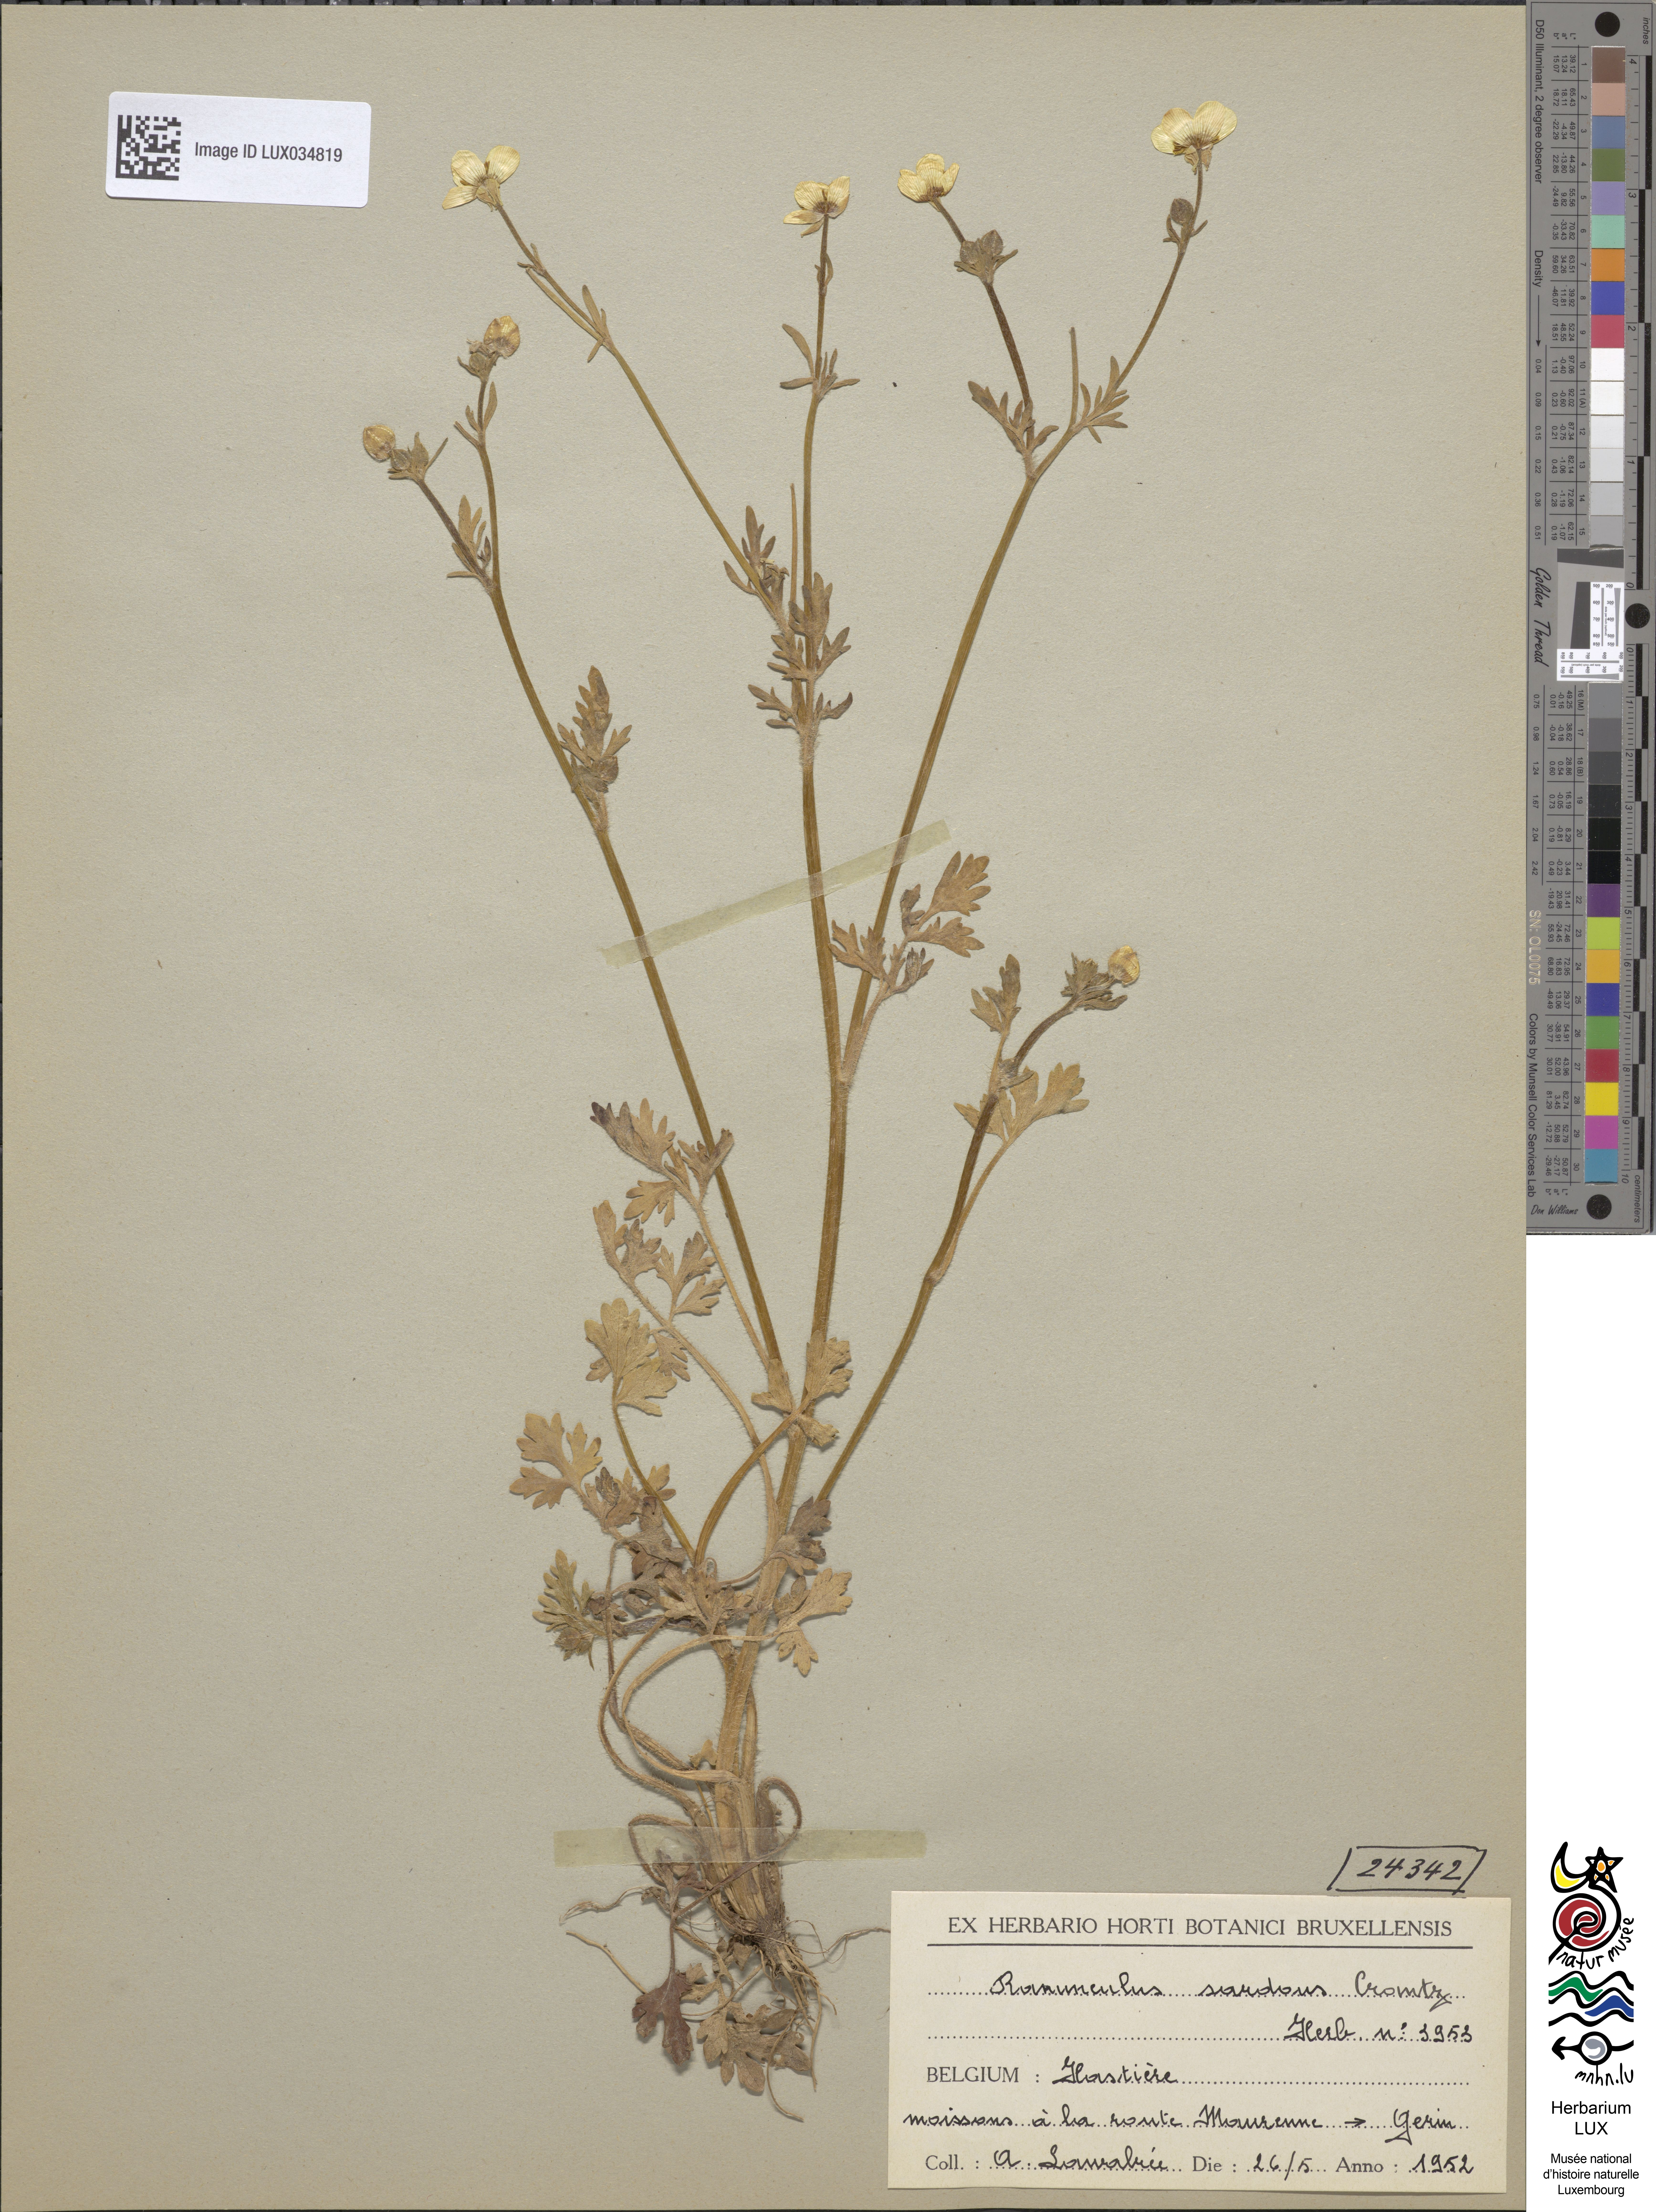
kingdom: Plantae
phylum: Tracheophyta
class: Magnoliopsida
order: Ranunculales
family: Ranunculaceae
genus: Ranunculus
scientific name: Ranunculus sardous
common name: Hairy buttercup
